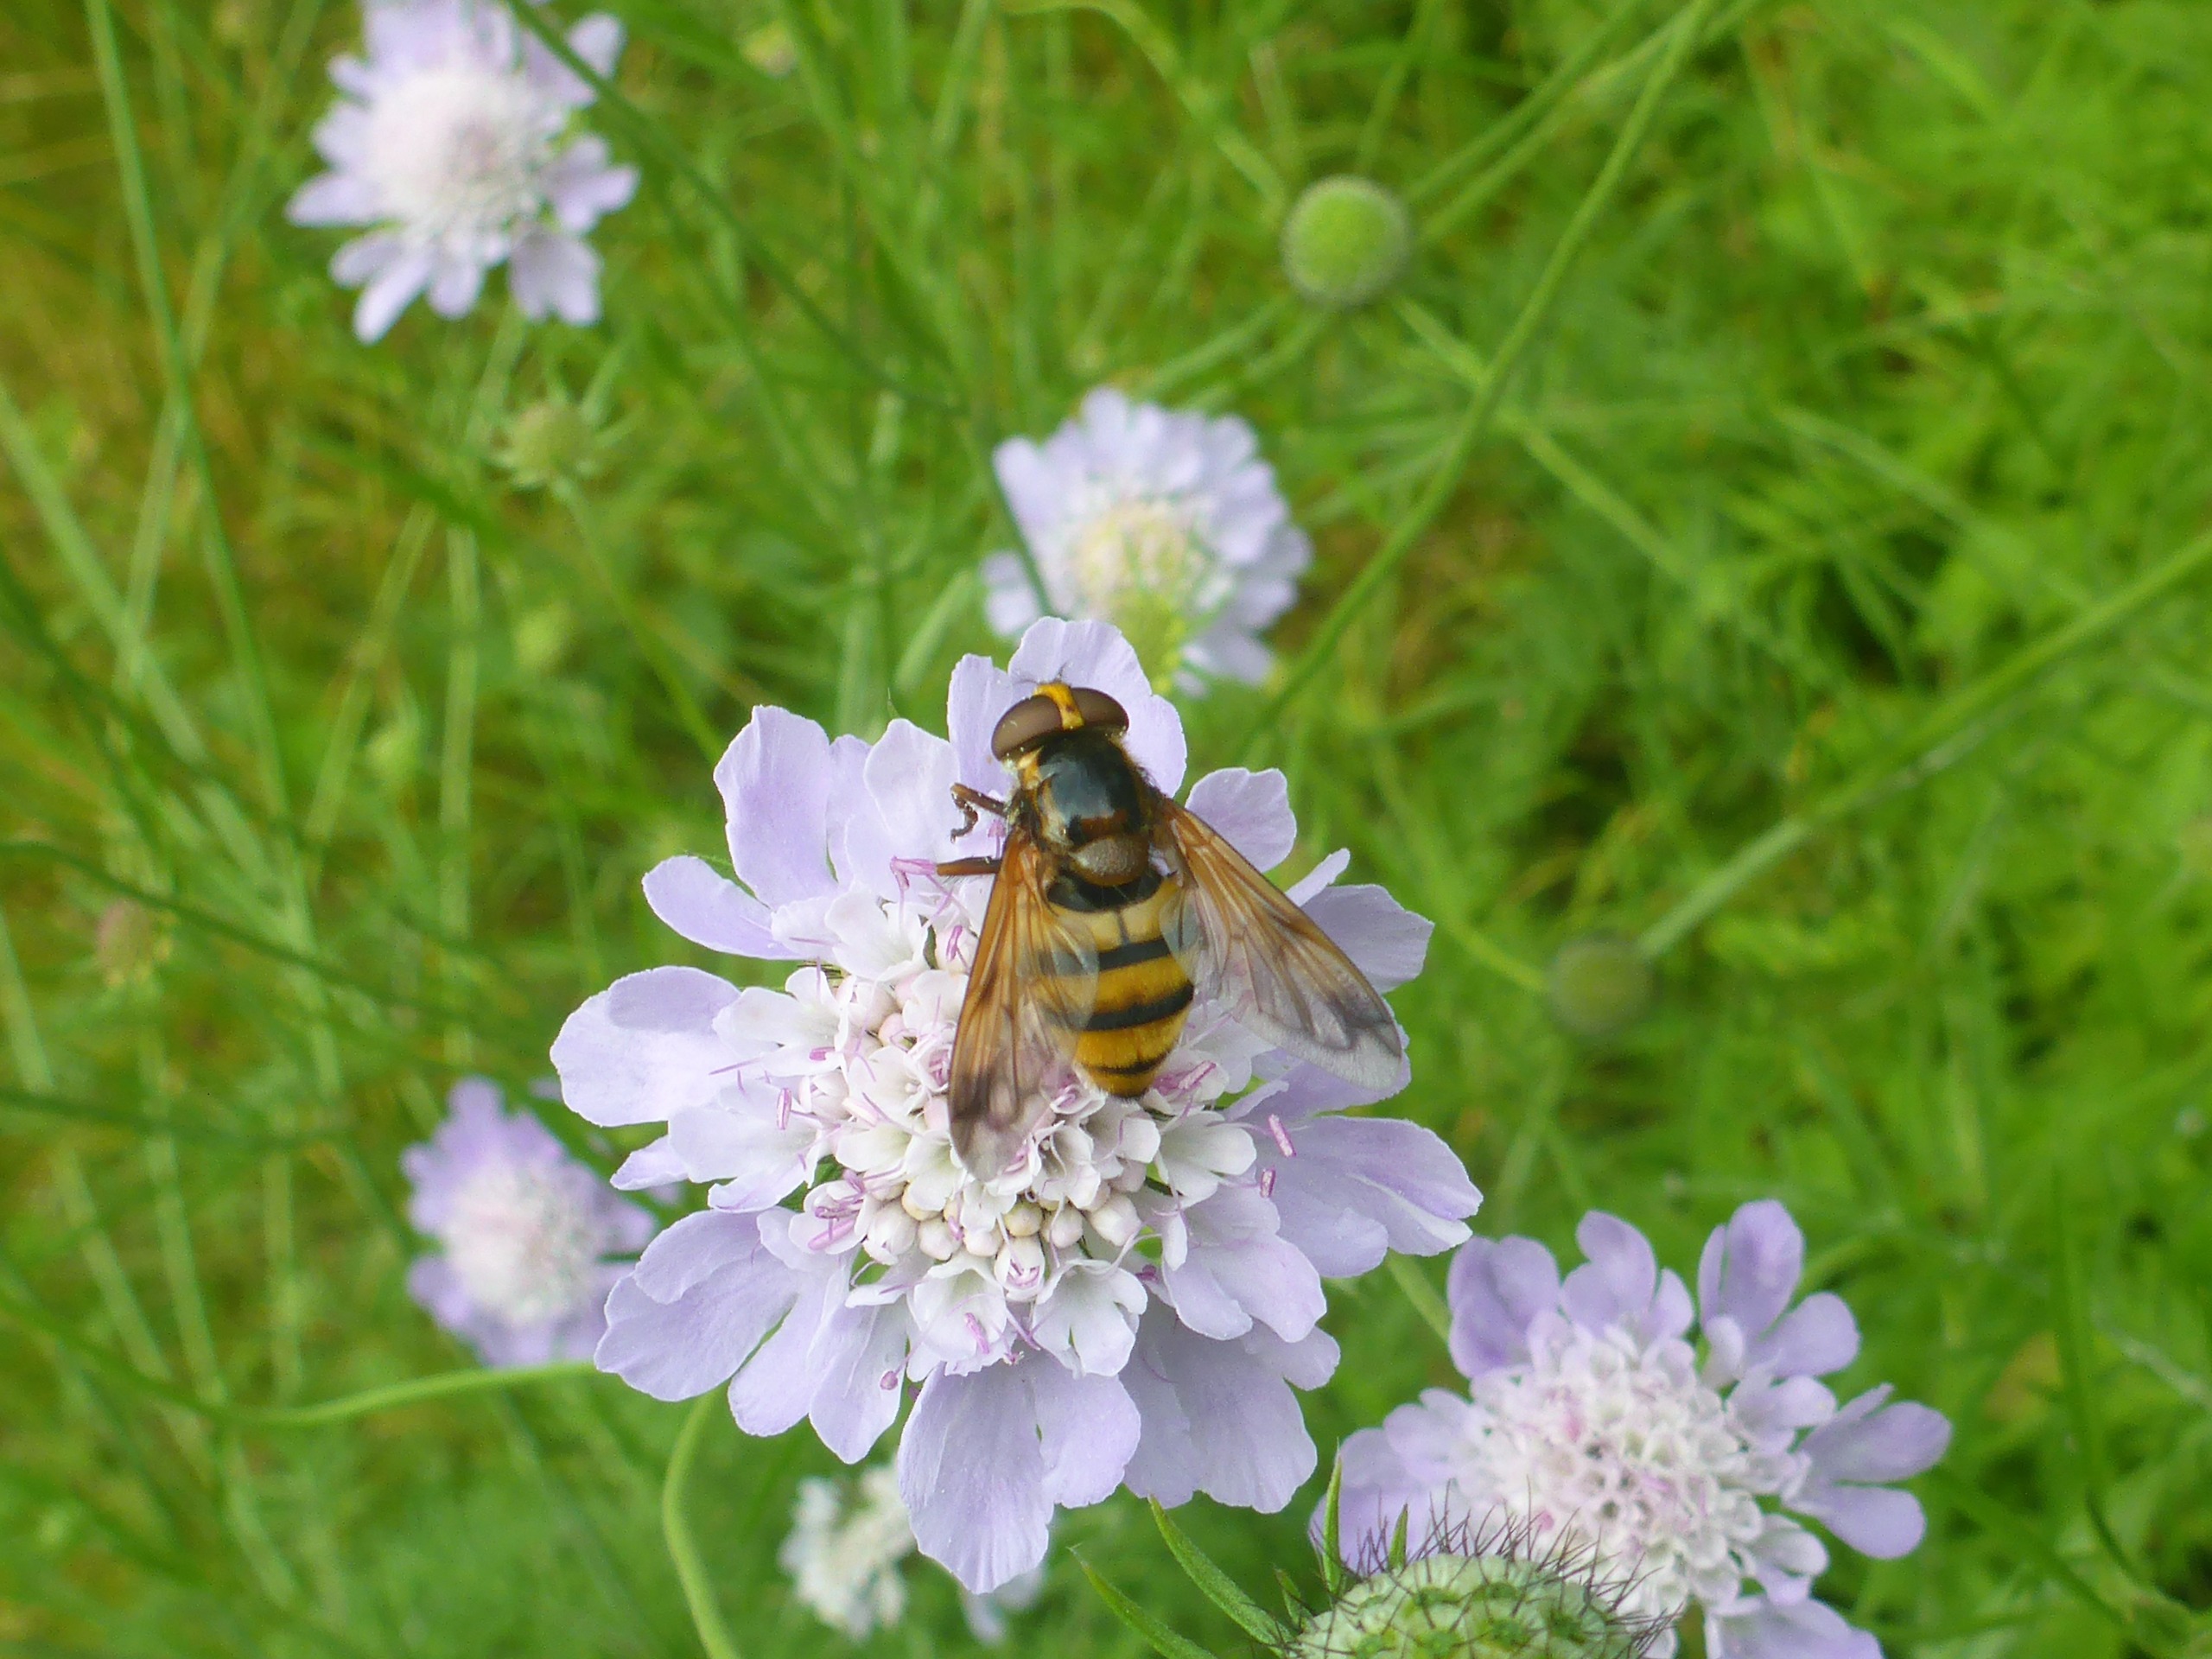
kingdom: Animalia
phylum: Arthropoda
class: Insecta
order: Diptera
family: Syrphidae
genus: Volucella
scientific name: Volucella inanis
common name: Gul humlesvirreflue
